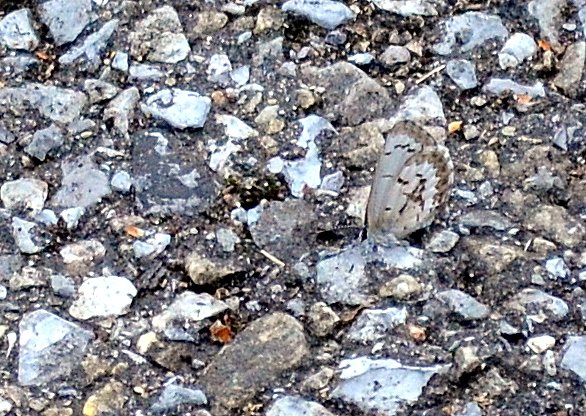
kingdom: Animalia
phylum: Arthropoda
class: Insecta
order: Lepidoptera
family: Lycaenidae
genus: Celastrina
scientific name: Celastrina lucia
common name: Northern Spring Azure
